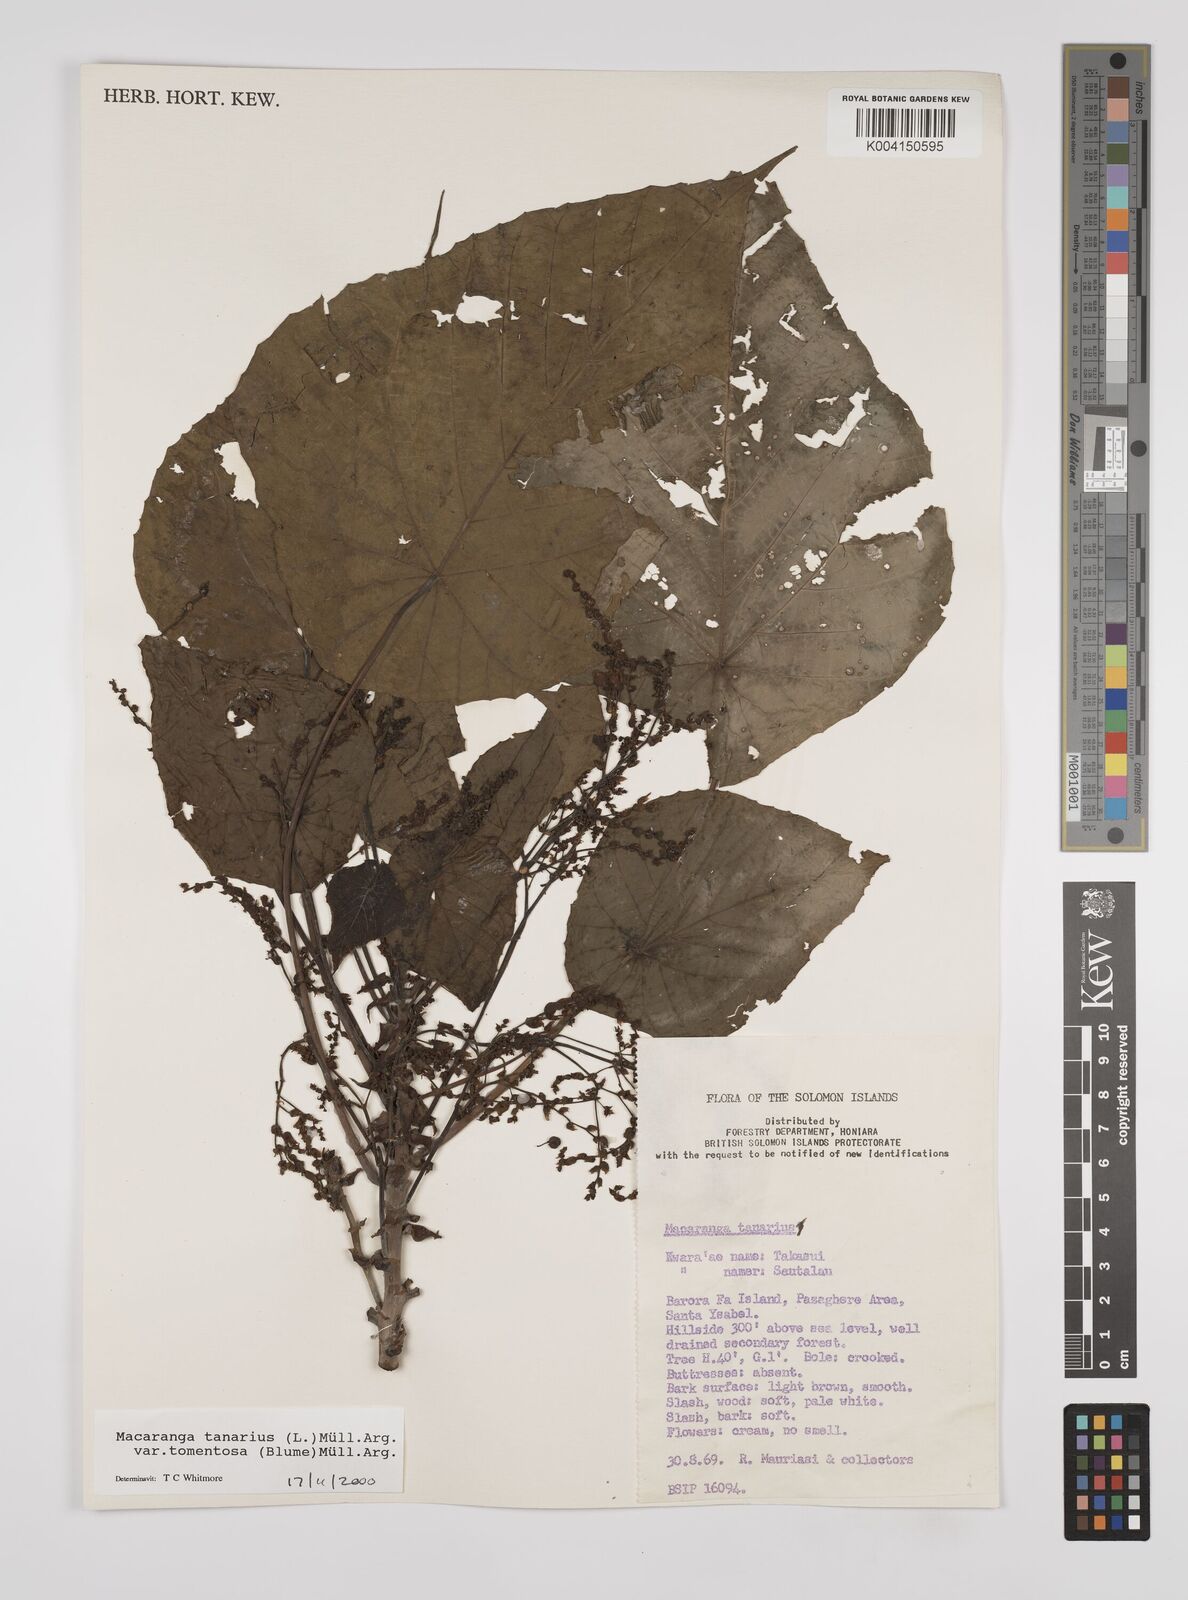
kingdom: Plantae
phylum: Tracheophyta
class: Magnoliopsida
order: Malpighiales
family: Euphorbiaceae
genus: Macaranga
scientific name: Macaranga tanarius
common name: Parasol leaf tree
